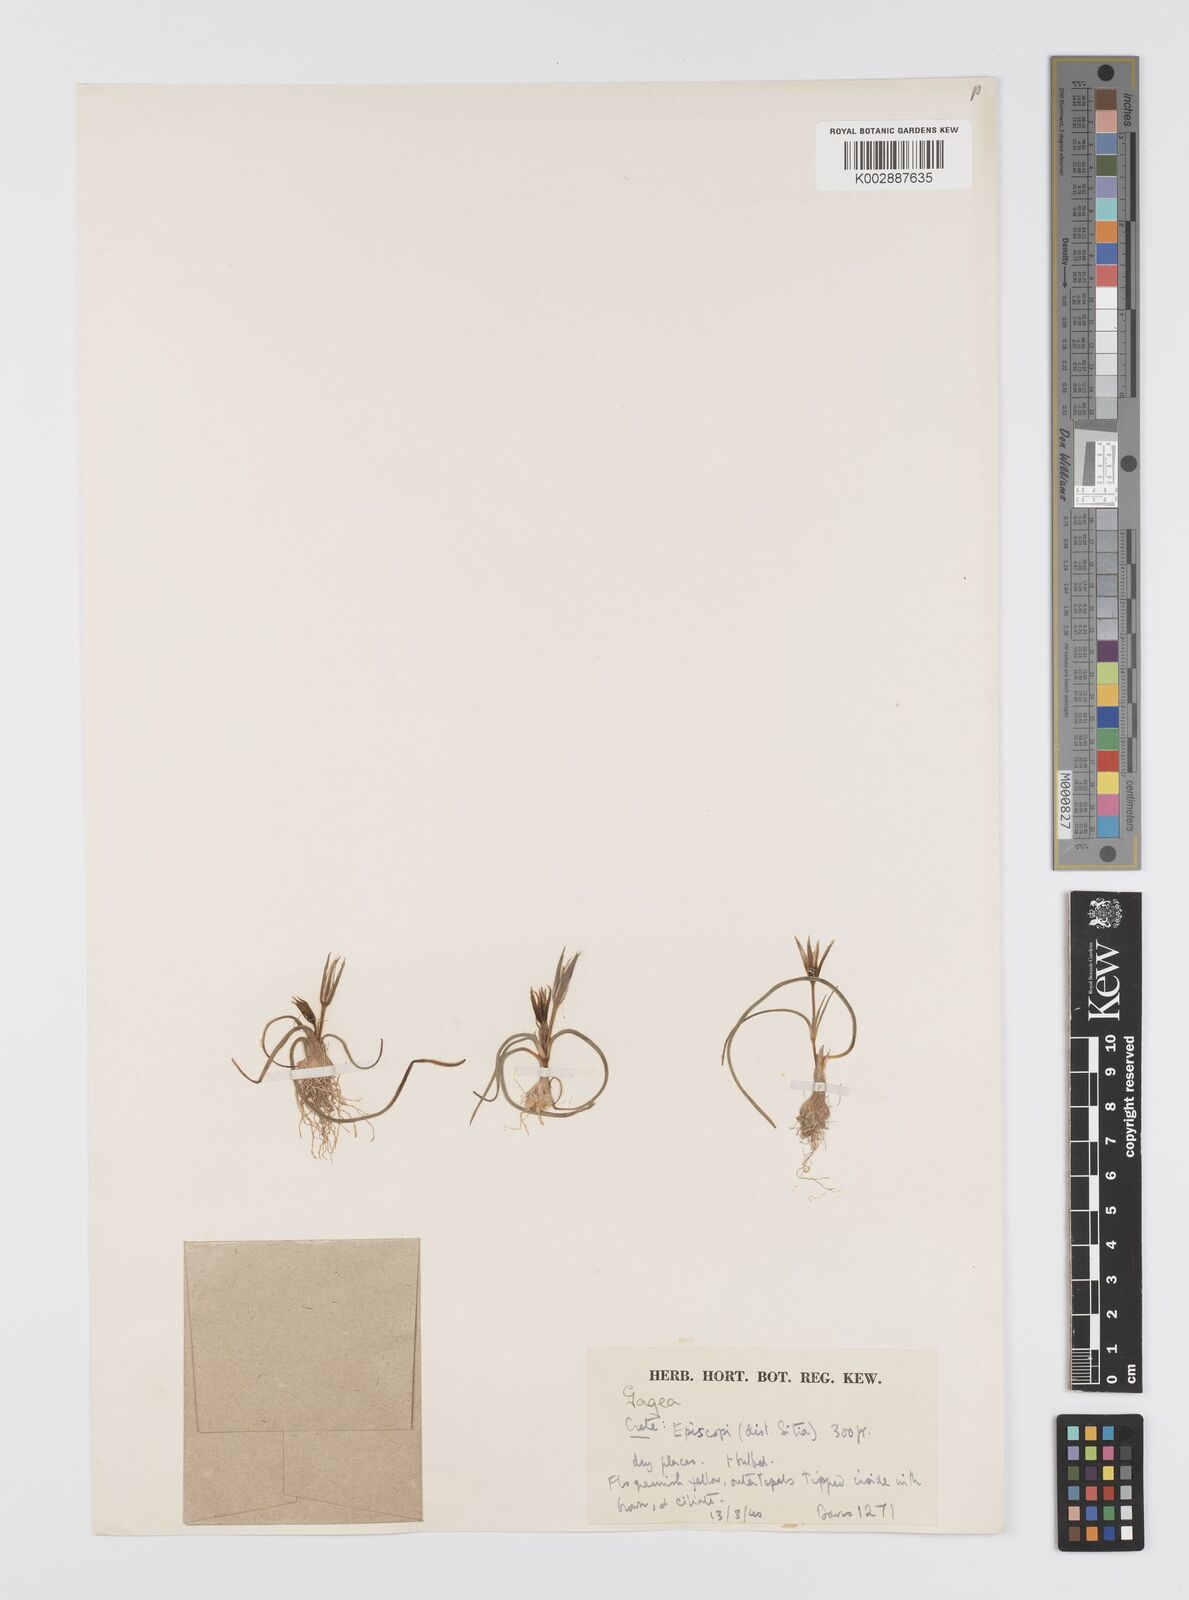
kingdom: Plantae
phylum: Tracheophyta
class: Liliopsida
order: Liliales
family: Liliaceae
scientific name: Liliaceae
